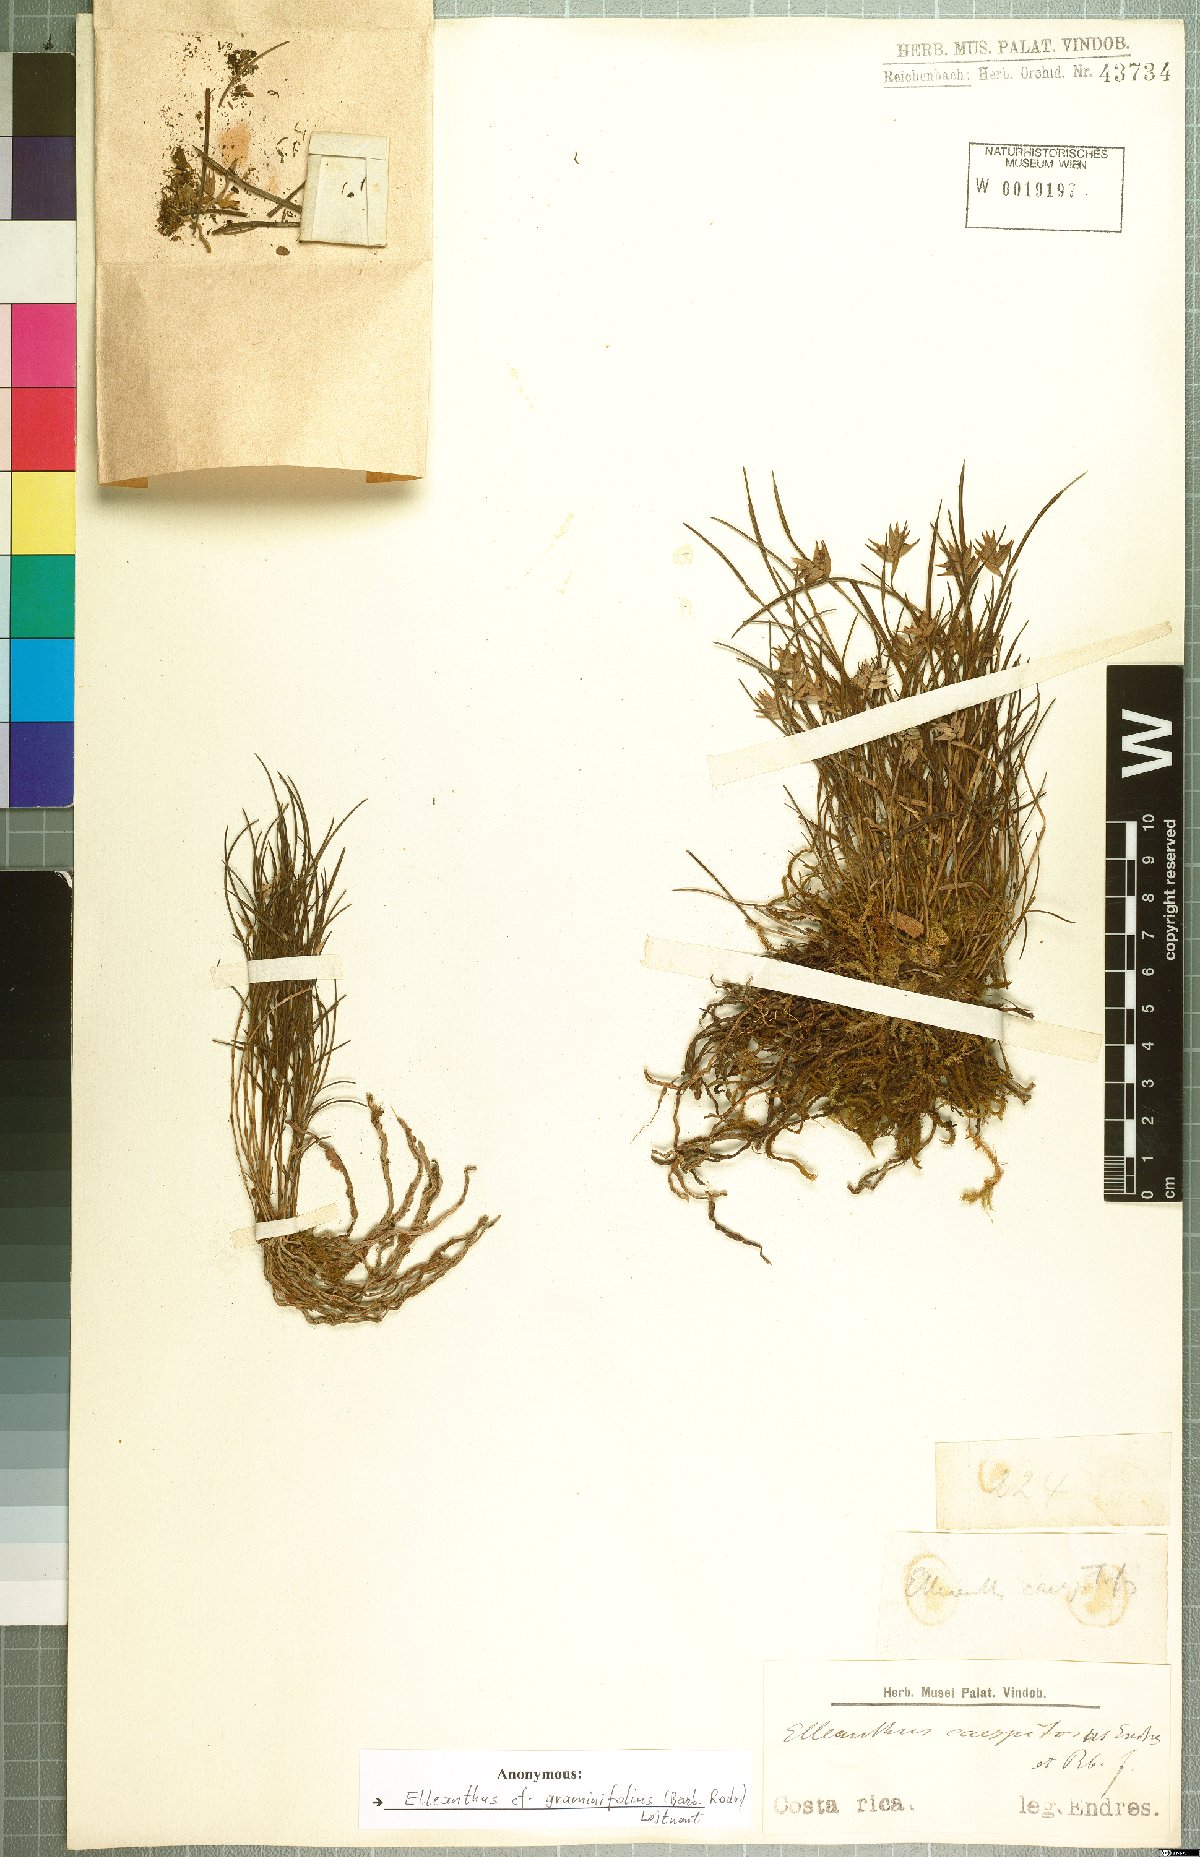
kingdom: Plantae
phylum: Tracheophyta
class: Liliopsida
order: Asparagales
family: Orchidaceae
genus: Elleanthus
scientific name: Elleanthus graminifolius
